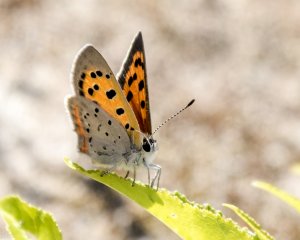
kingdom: Animalia
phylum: Arthropoda
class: Insecta
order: Lepidoptera
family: Lycaenidae
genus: Lycaena
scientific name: Lycaena phlaeas
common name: American Copper
